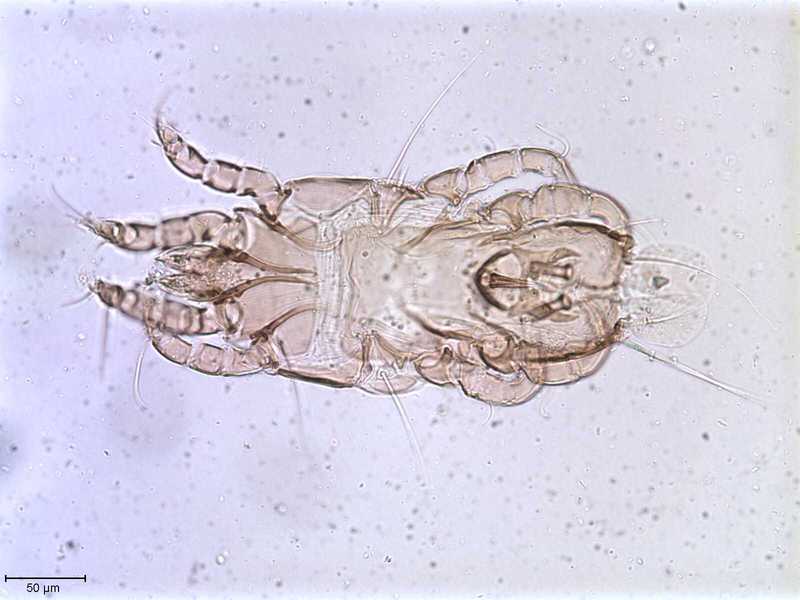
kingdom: Animalia
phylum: Arthropoda
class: Arachnida
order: Sarcoptiformes
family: Proctophyllodidae
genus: Proctophyllodes
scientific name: Proctophyllodes ludovicianus
